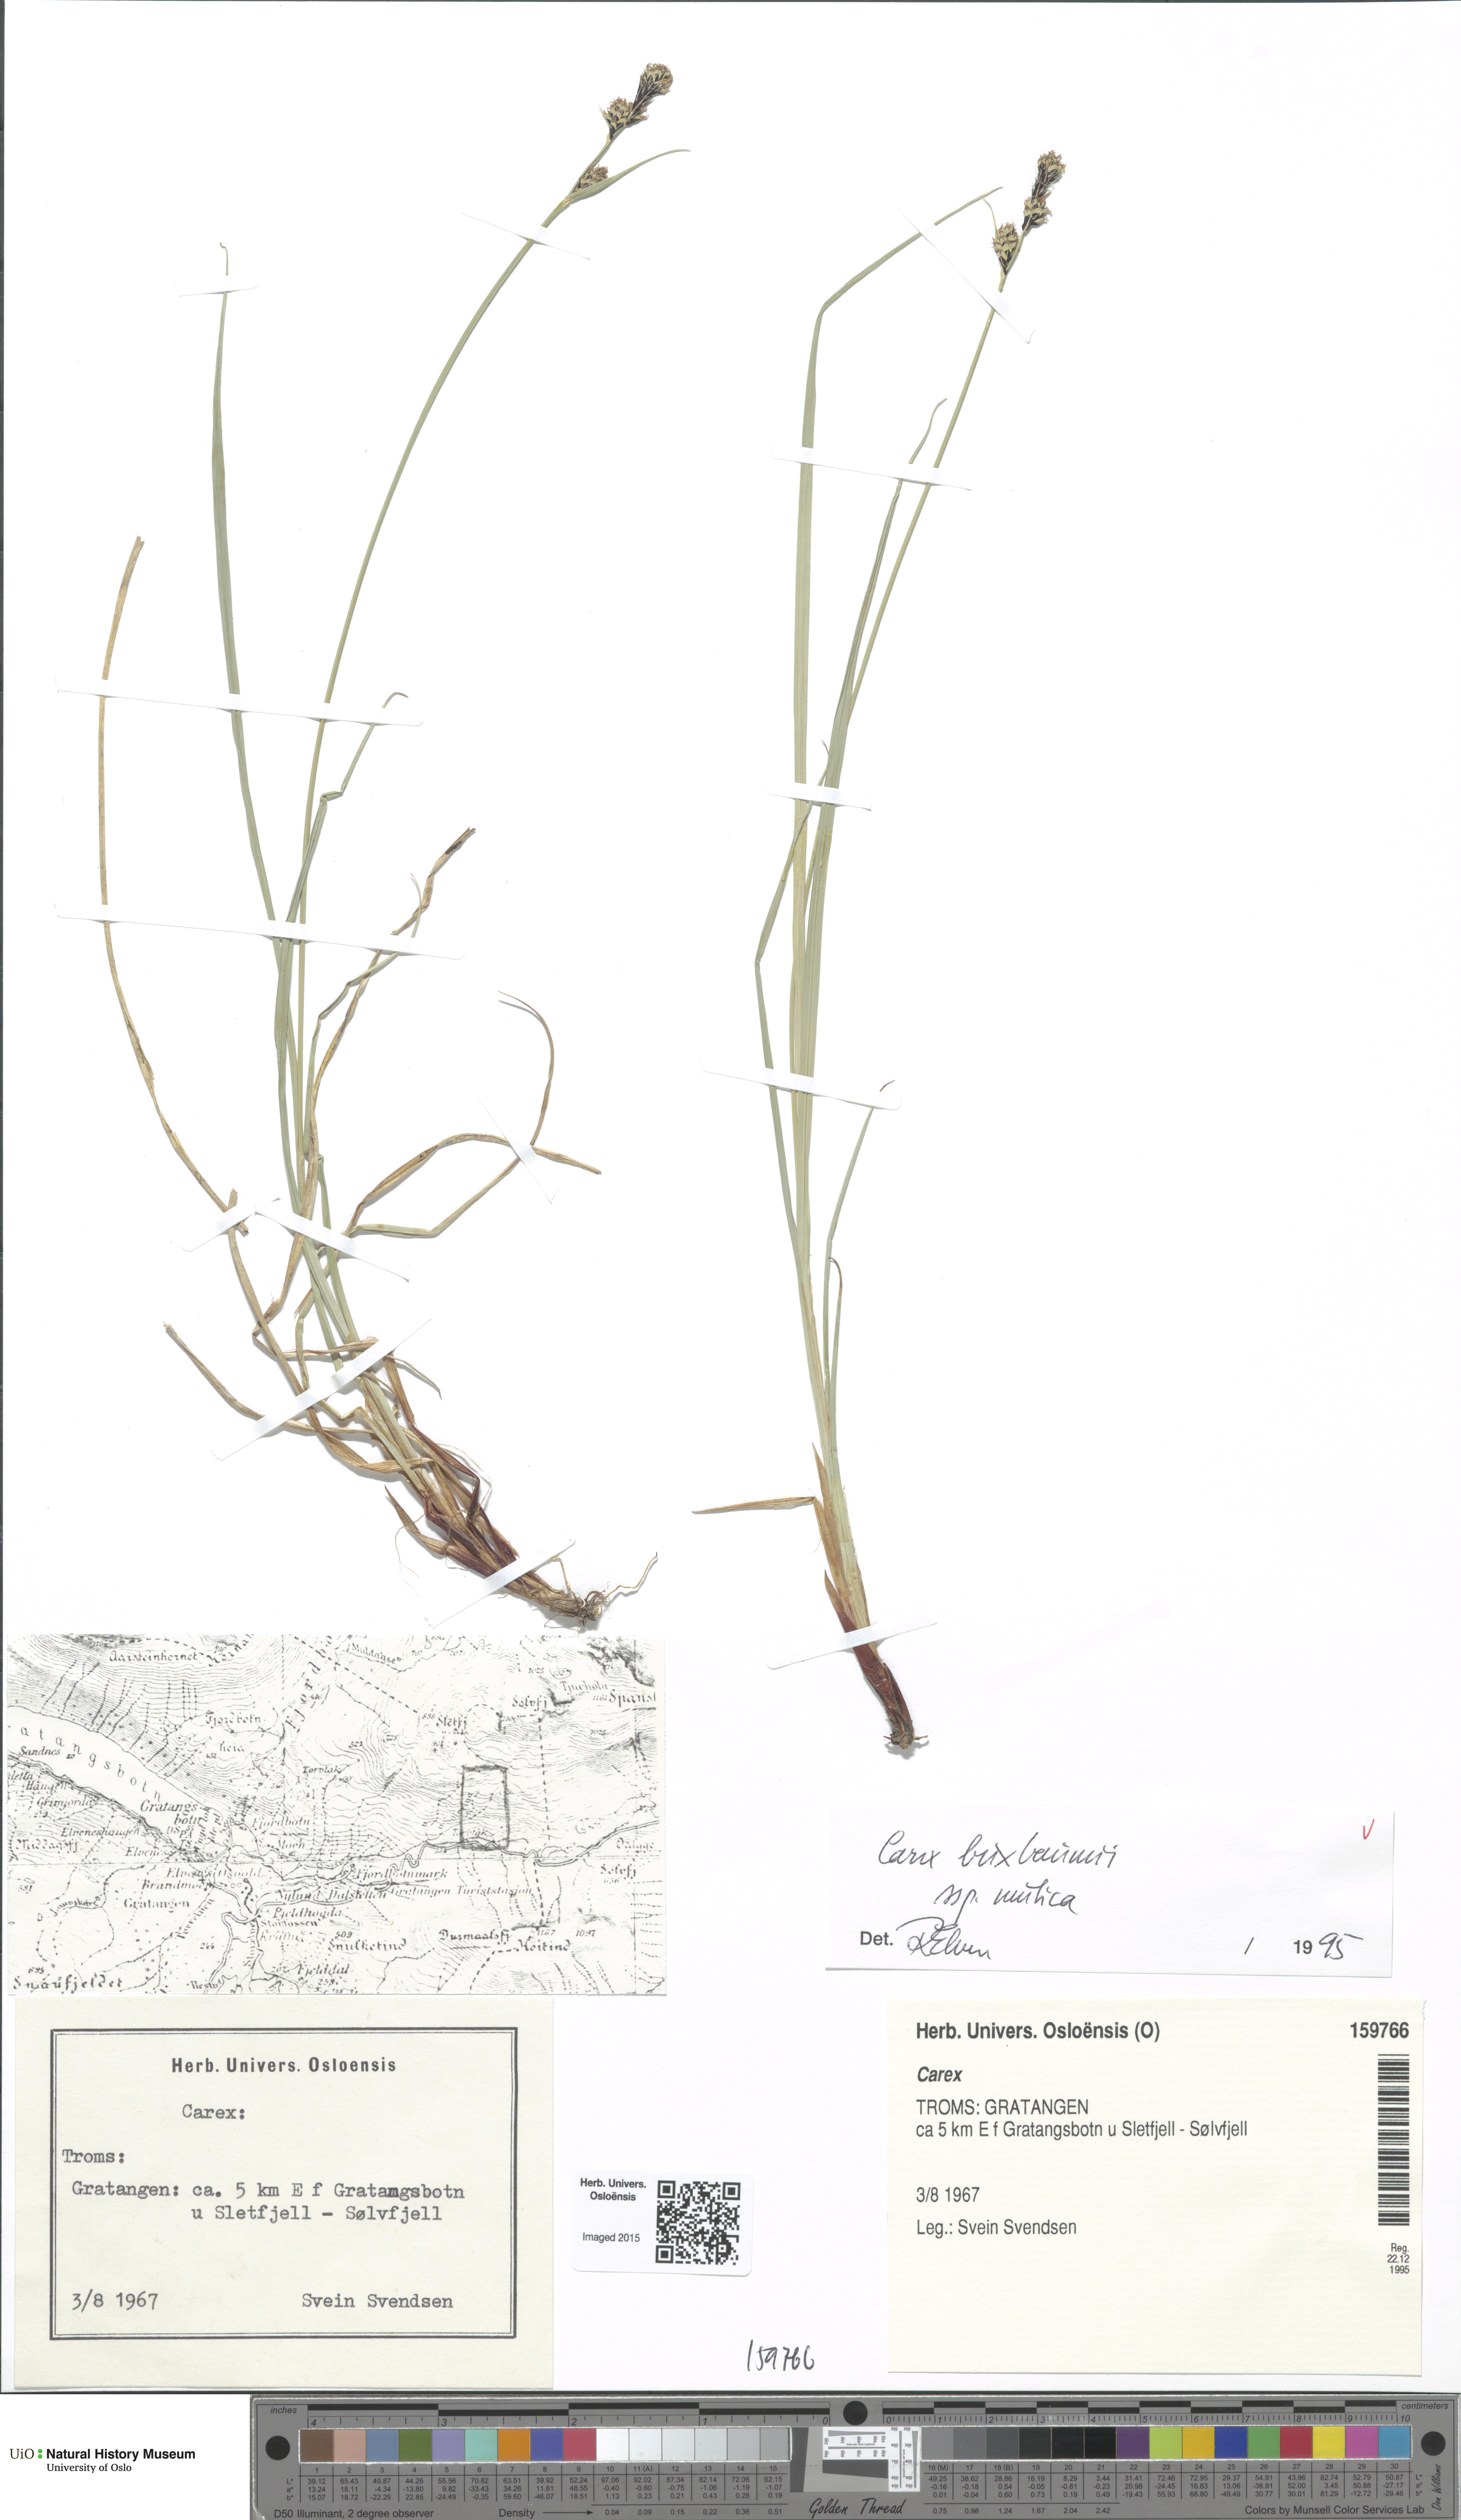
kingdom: Plantae
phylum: Tracheophyta
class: Liliopsida
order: Poales
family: Cyperaceae
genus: Carex
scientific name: Carex adelostoma
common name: Circumpolar sedge
